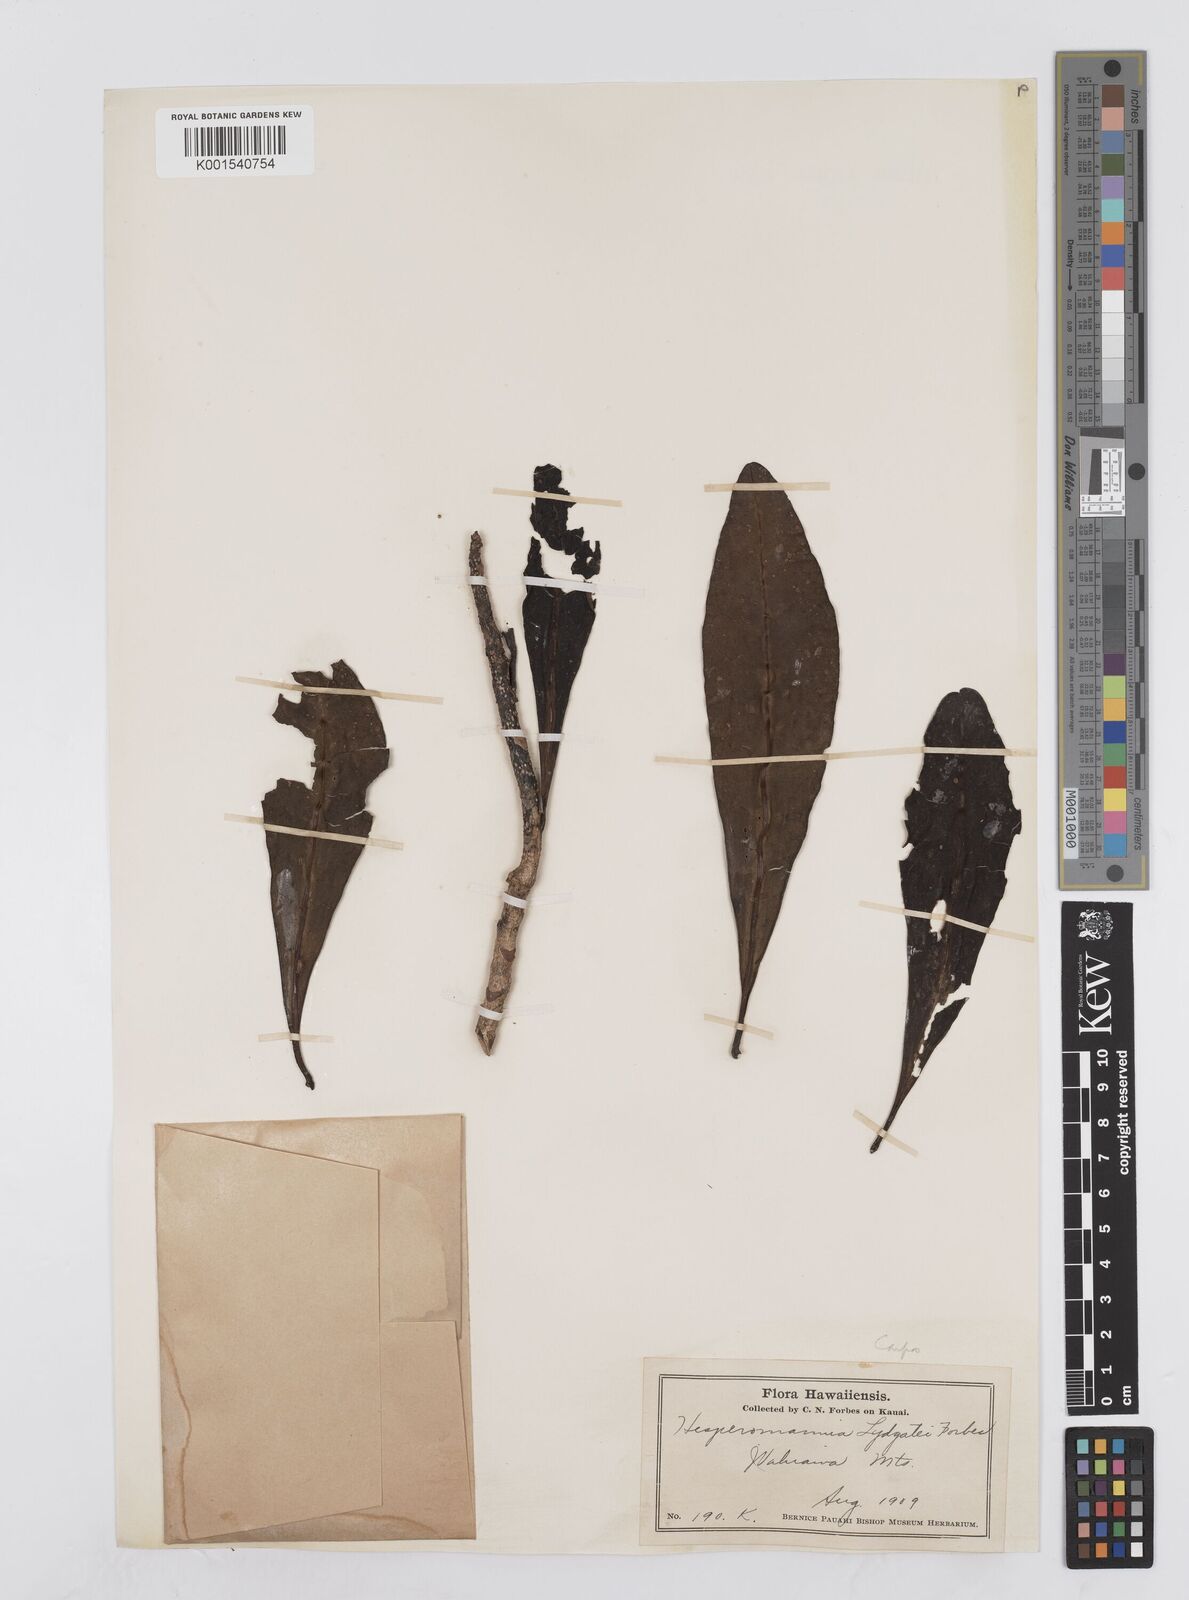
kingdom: Plantae
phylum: Tracheophyta
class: Magnoliopsida
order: Asterales
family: Asteraceae
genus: Hesperomannia
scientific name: Hesperomannia lydgatei
